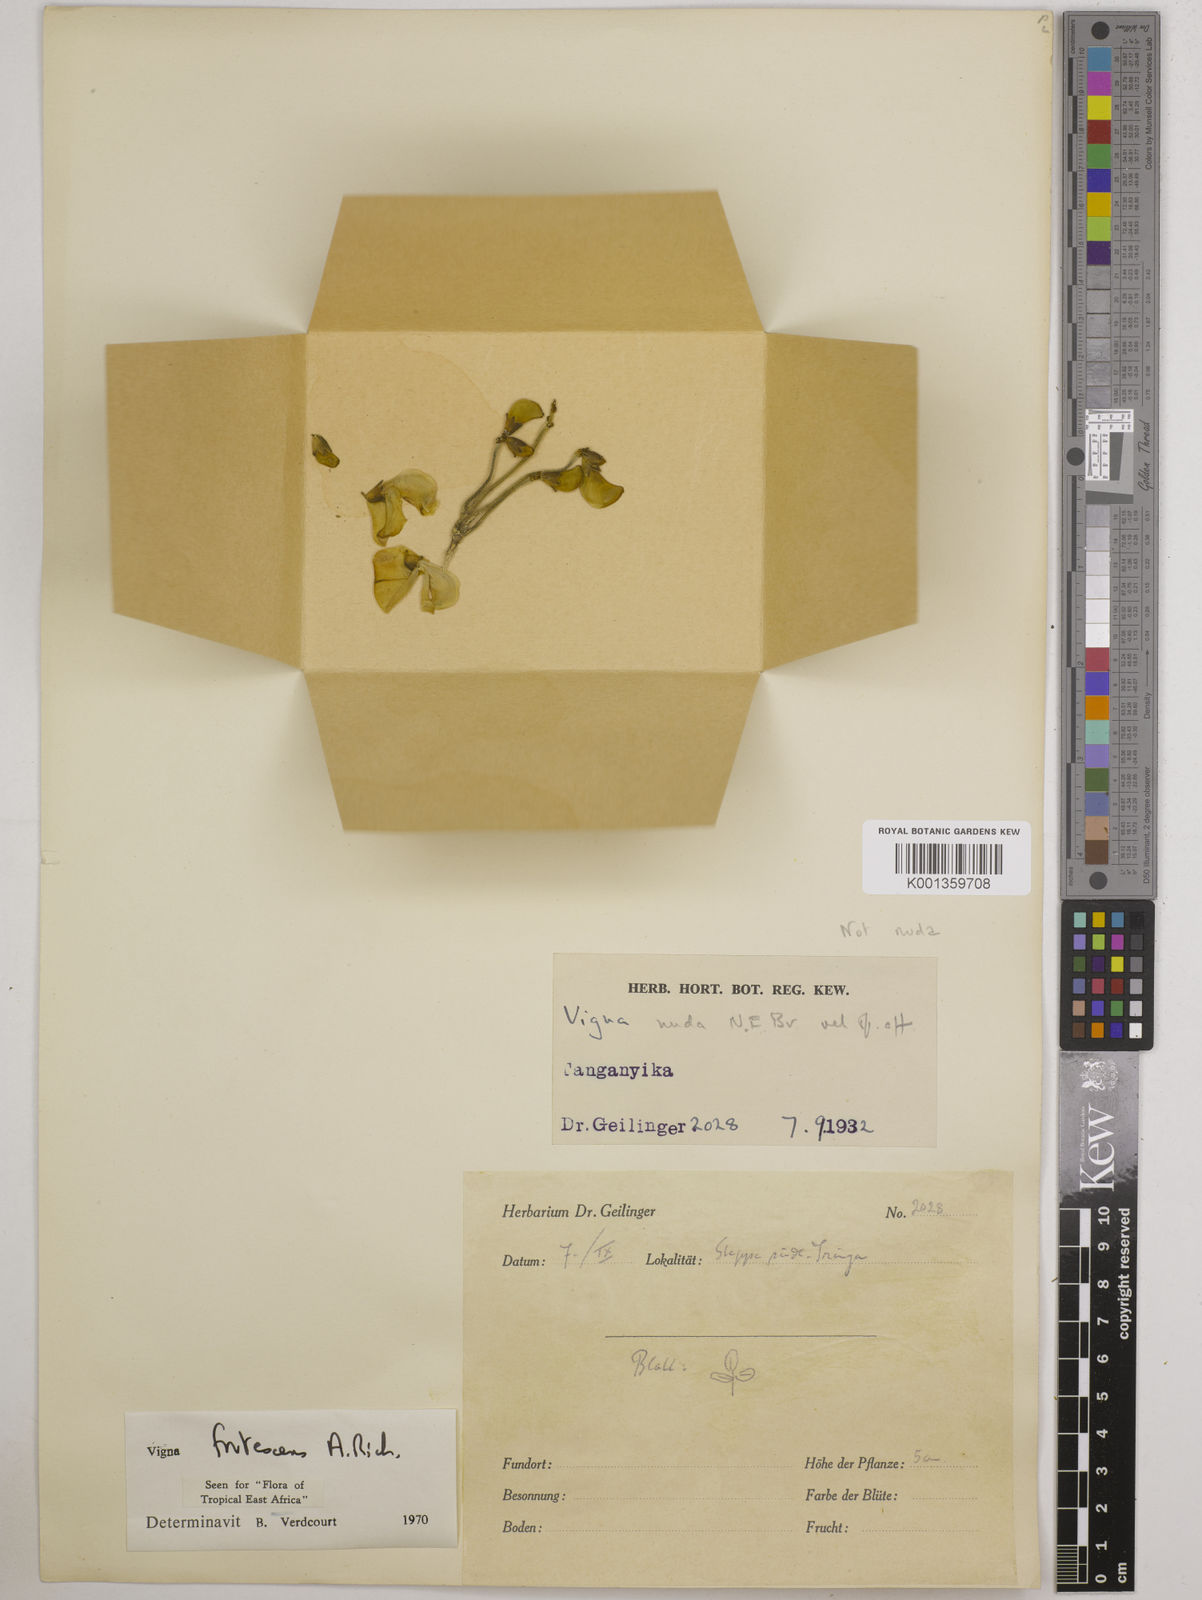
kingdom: Plantae
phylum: Tracheophyta
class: Magnoliopsida
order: Fabales
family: Fabaceae
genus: Vigna
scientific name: Vigna frutescens
